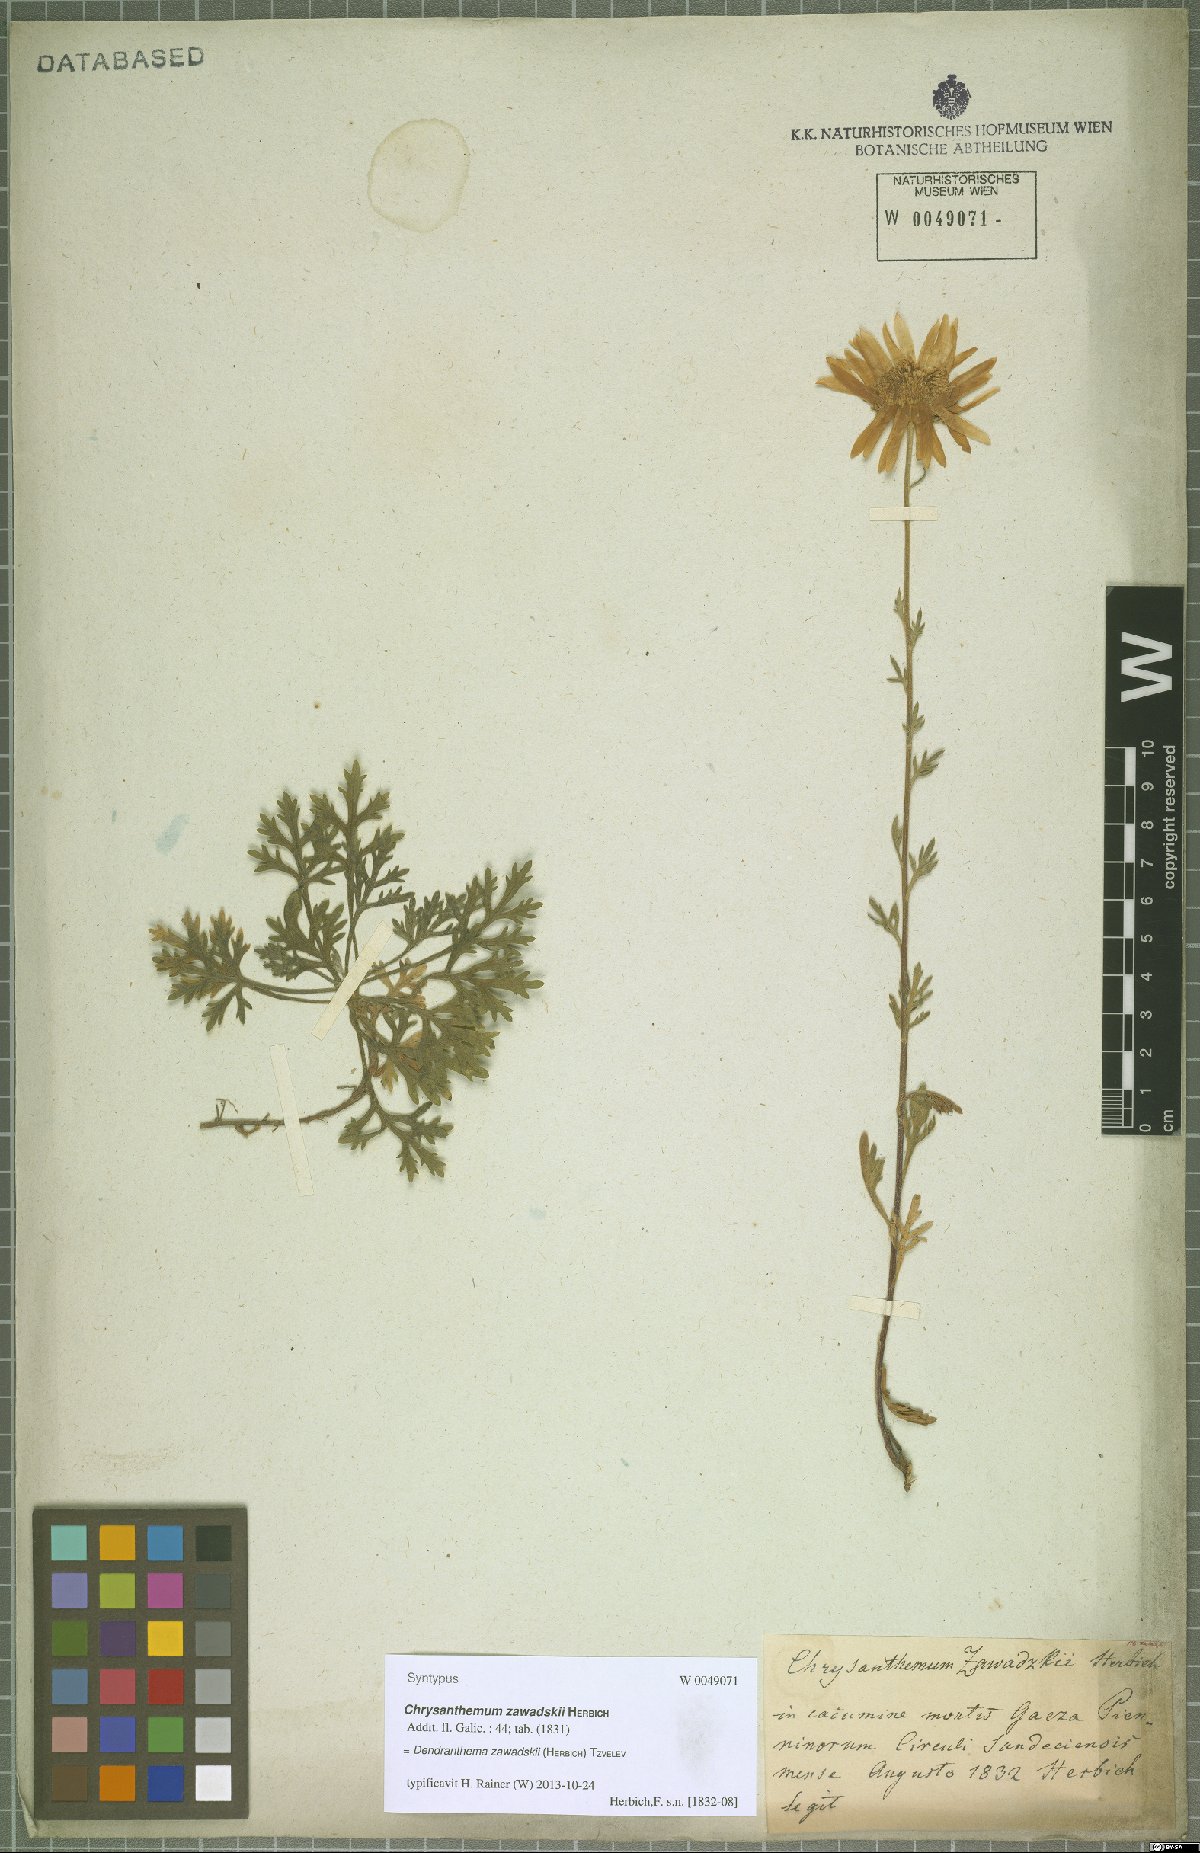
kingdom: Plantae
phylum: Tracheophyta
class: Magnoliopsida
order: Asterales
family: Asteraceae
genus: Chrysanthemum
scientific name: Chrysanthemum zawadzkii
